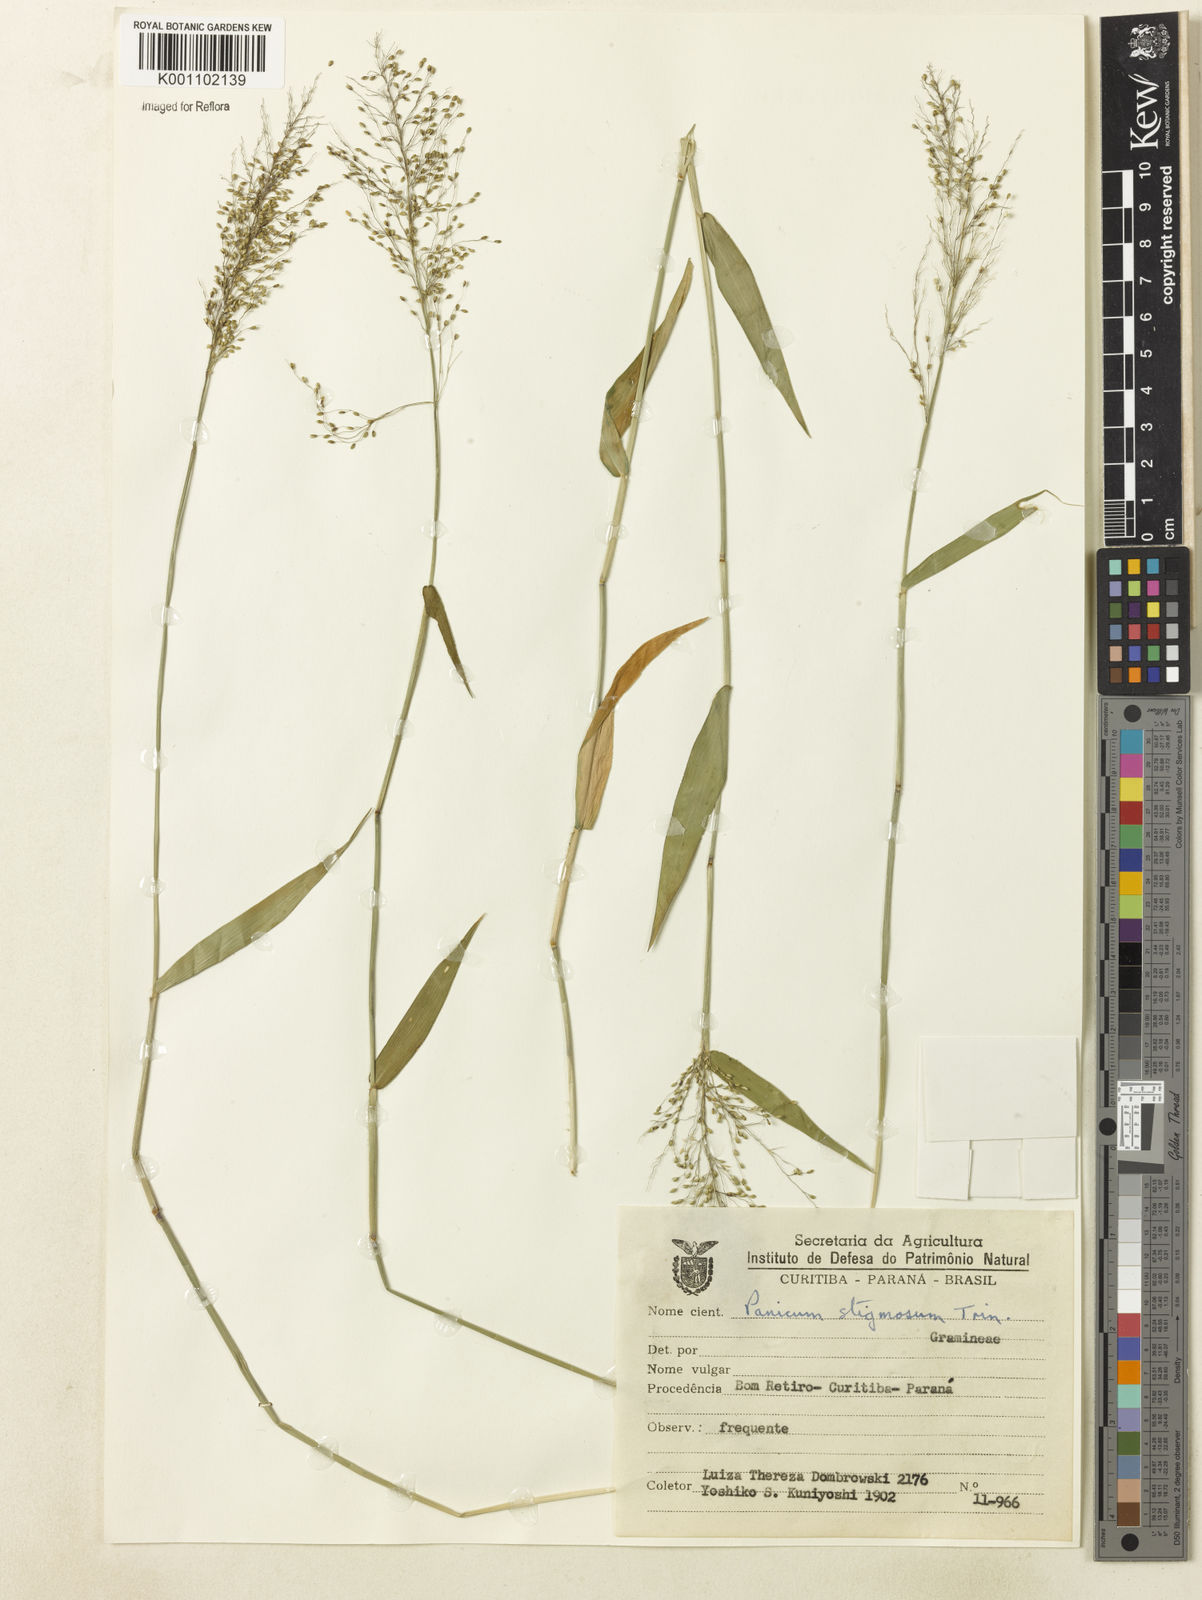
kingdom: Plantae
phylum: Tracheophyta
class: Liliopsida
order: Poales
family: Poaceae
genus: Dichanthelium
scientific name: Dichanthelium stigmosum
